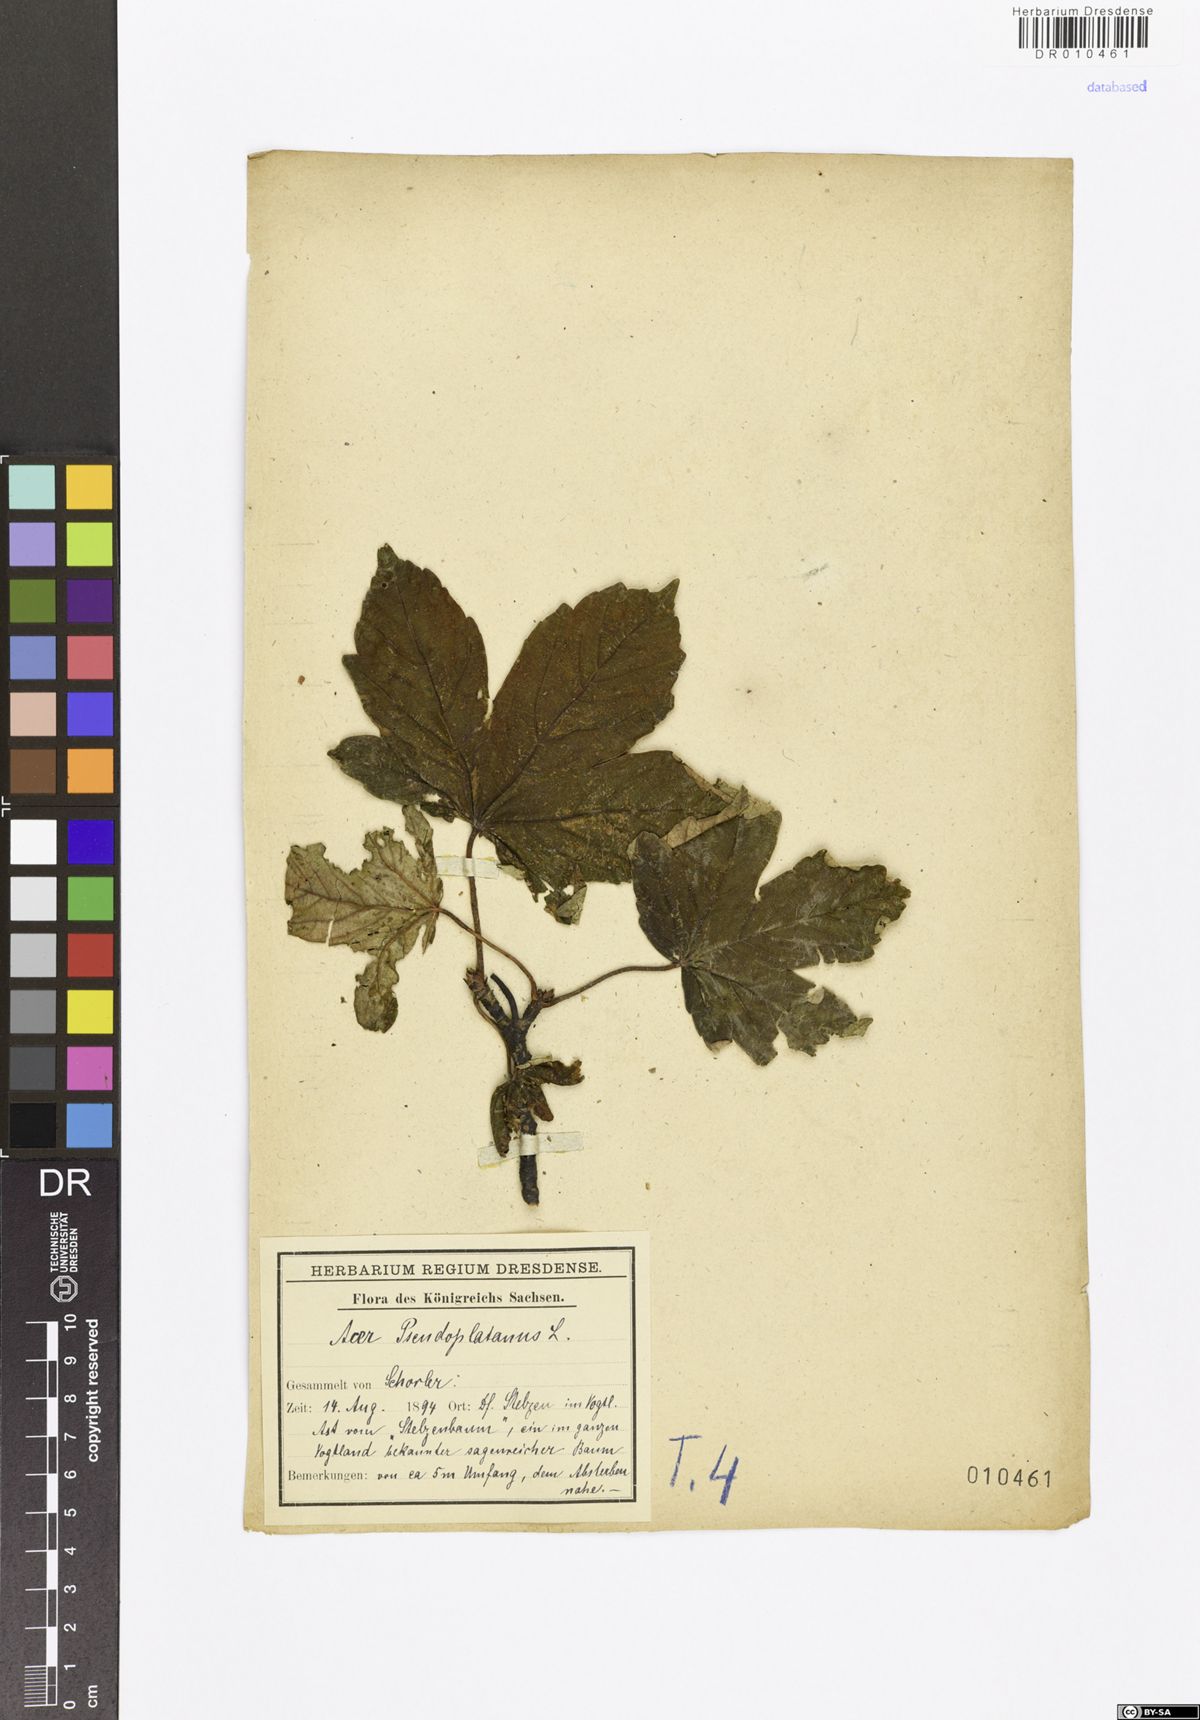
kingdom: Plantae
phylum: Tracheophyta
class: Magnoliopsida
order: Sapindales
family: Sapindaceae
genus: Acer
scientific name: Acer pseudoplatanus
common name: Sycamore
